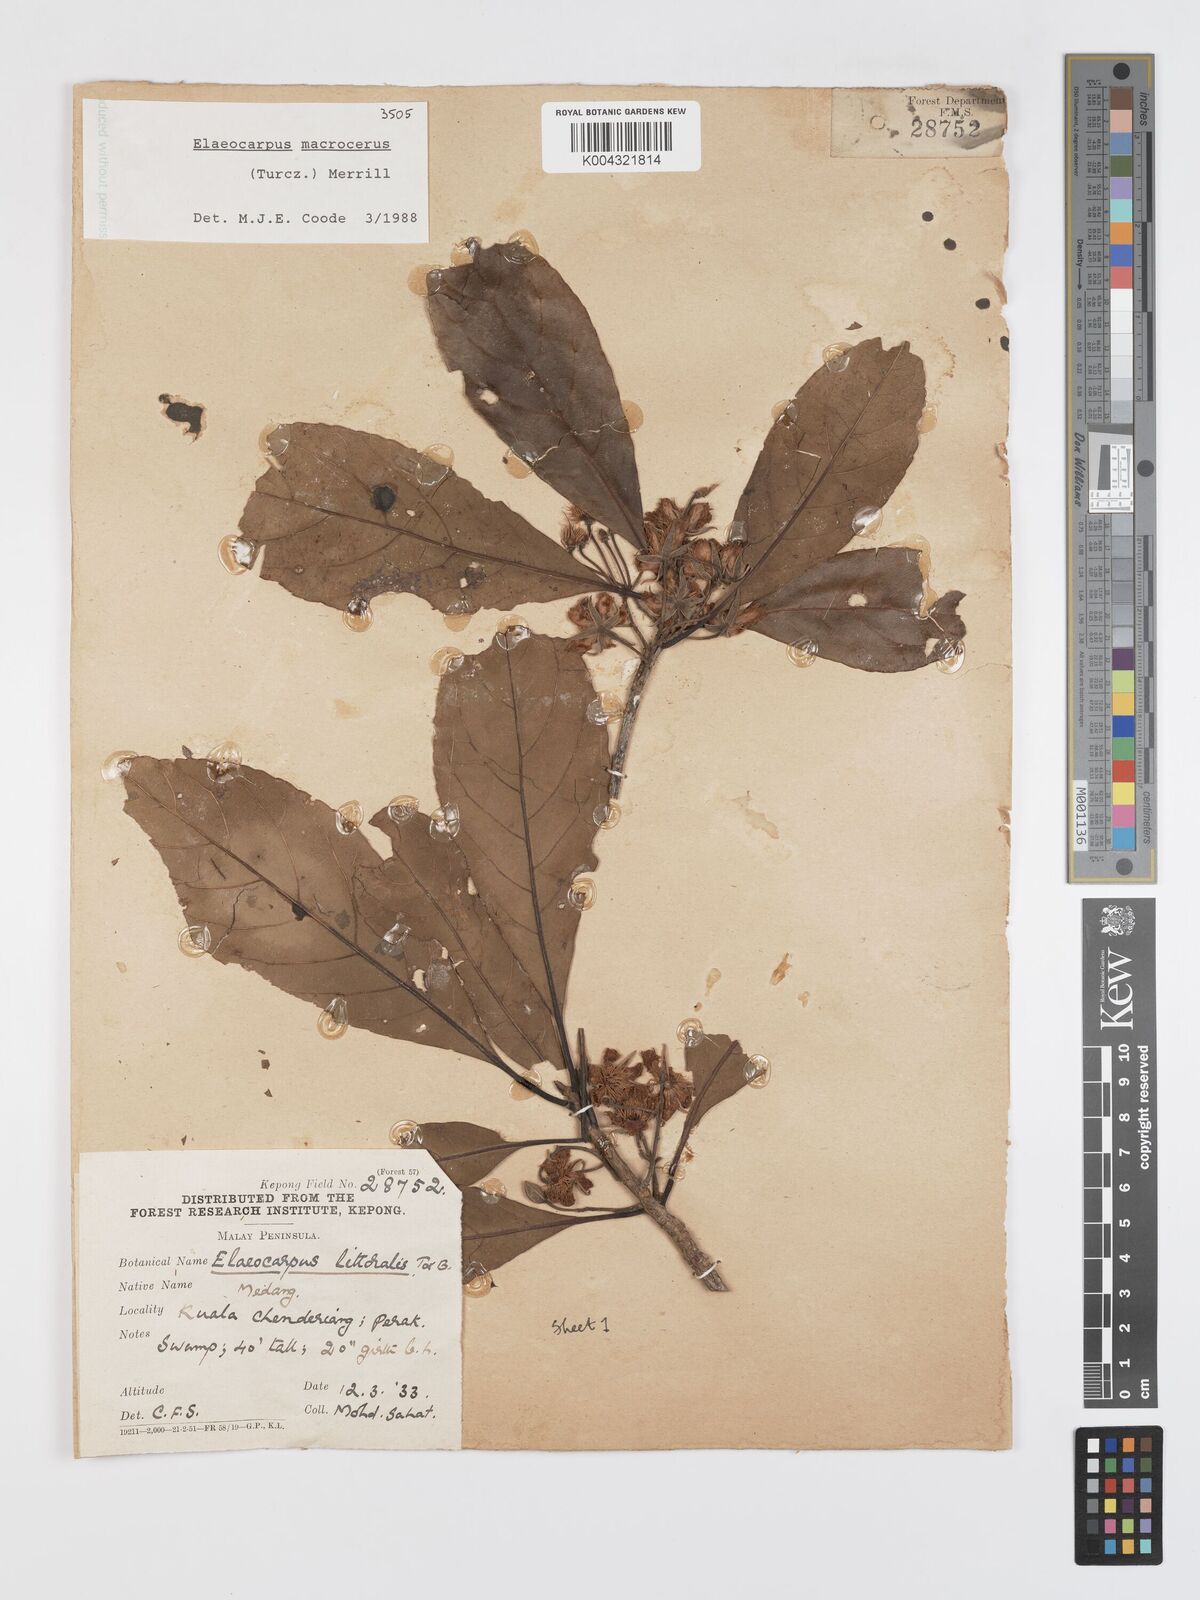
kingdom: Plantae
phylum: Tracheophyta
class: Magnoliopsida
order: Oxalidales
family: Elaeocarpaceae
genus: Elaeocarpus
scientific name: Elaeocarpus
